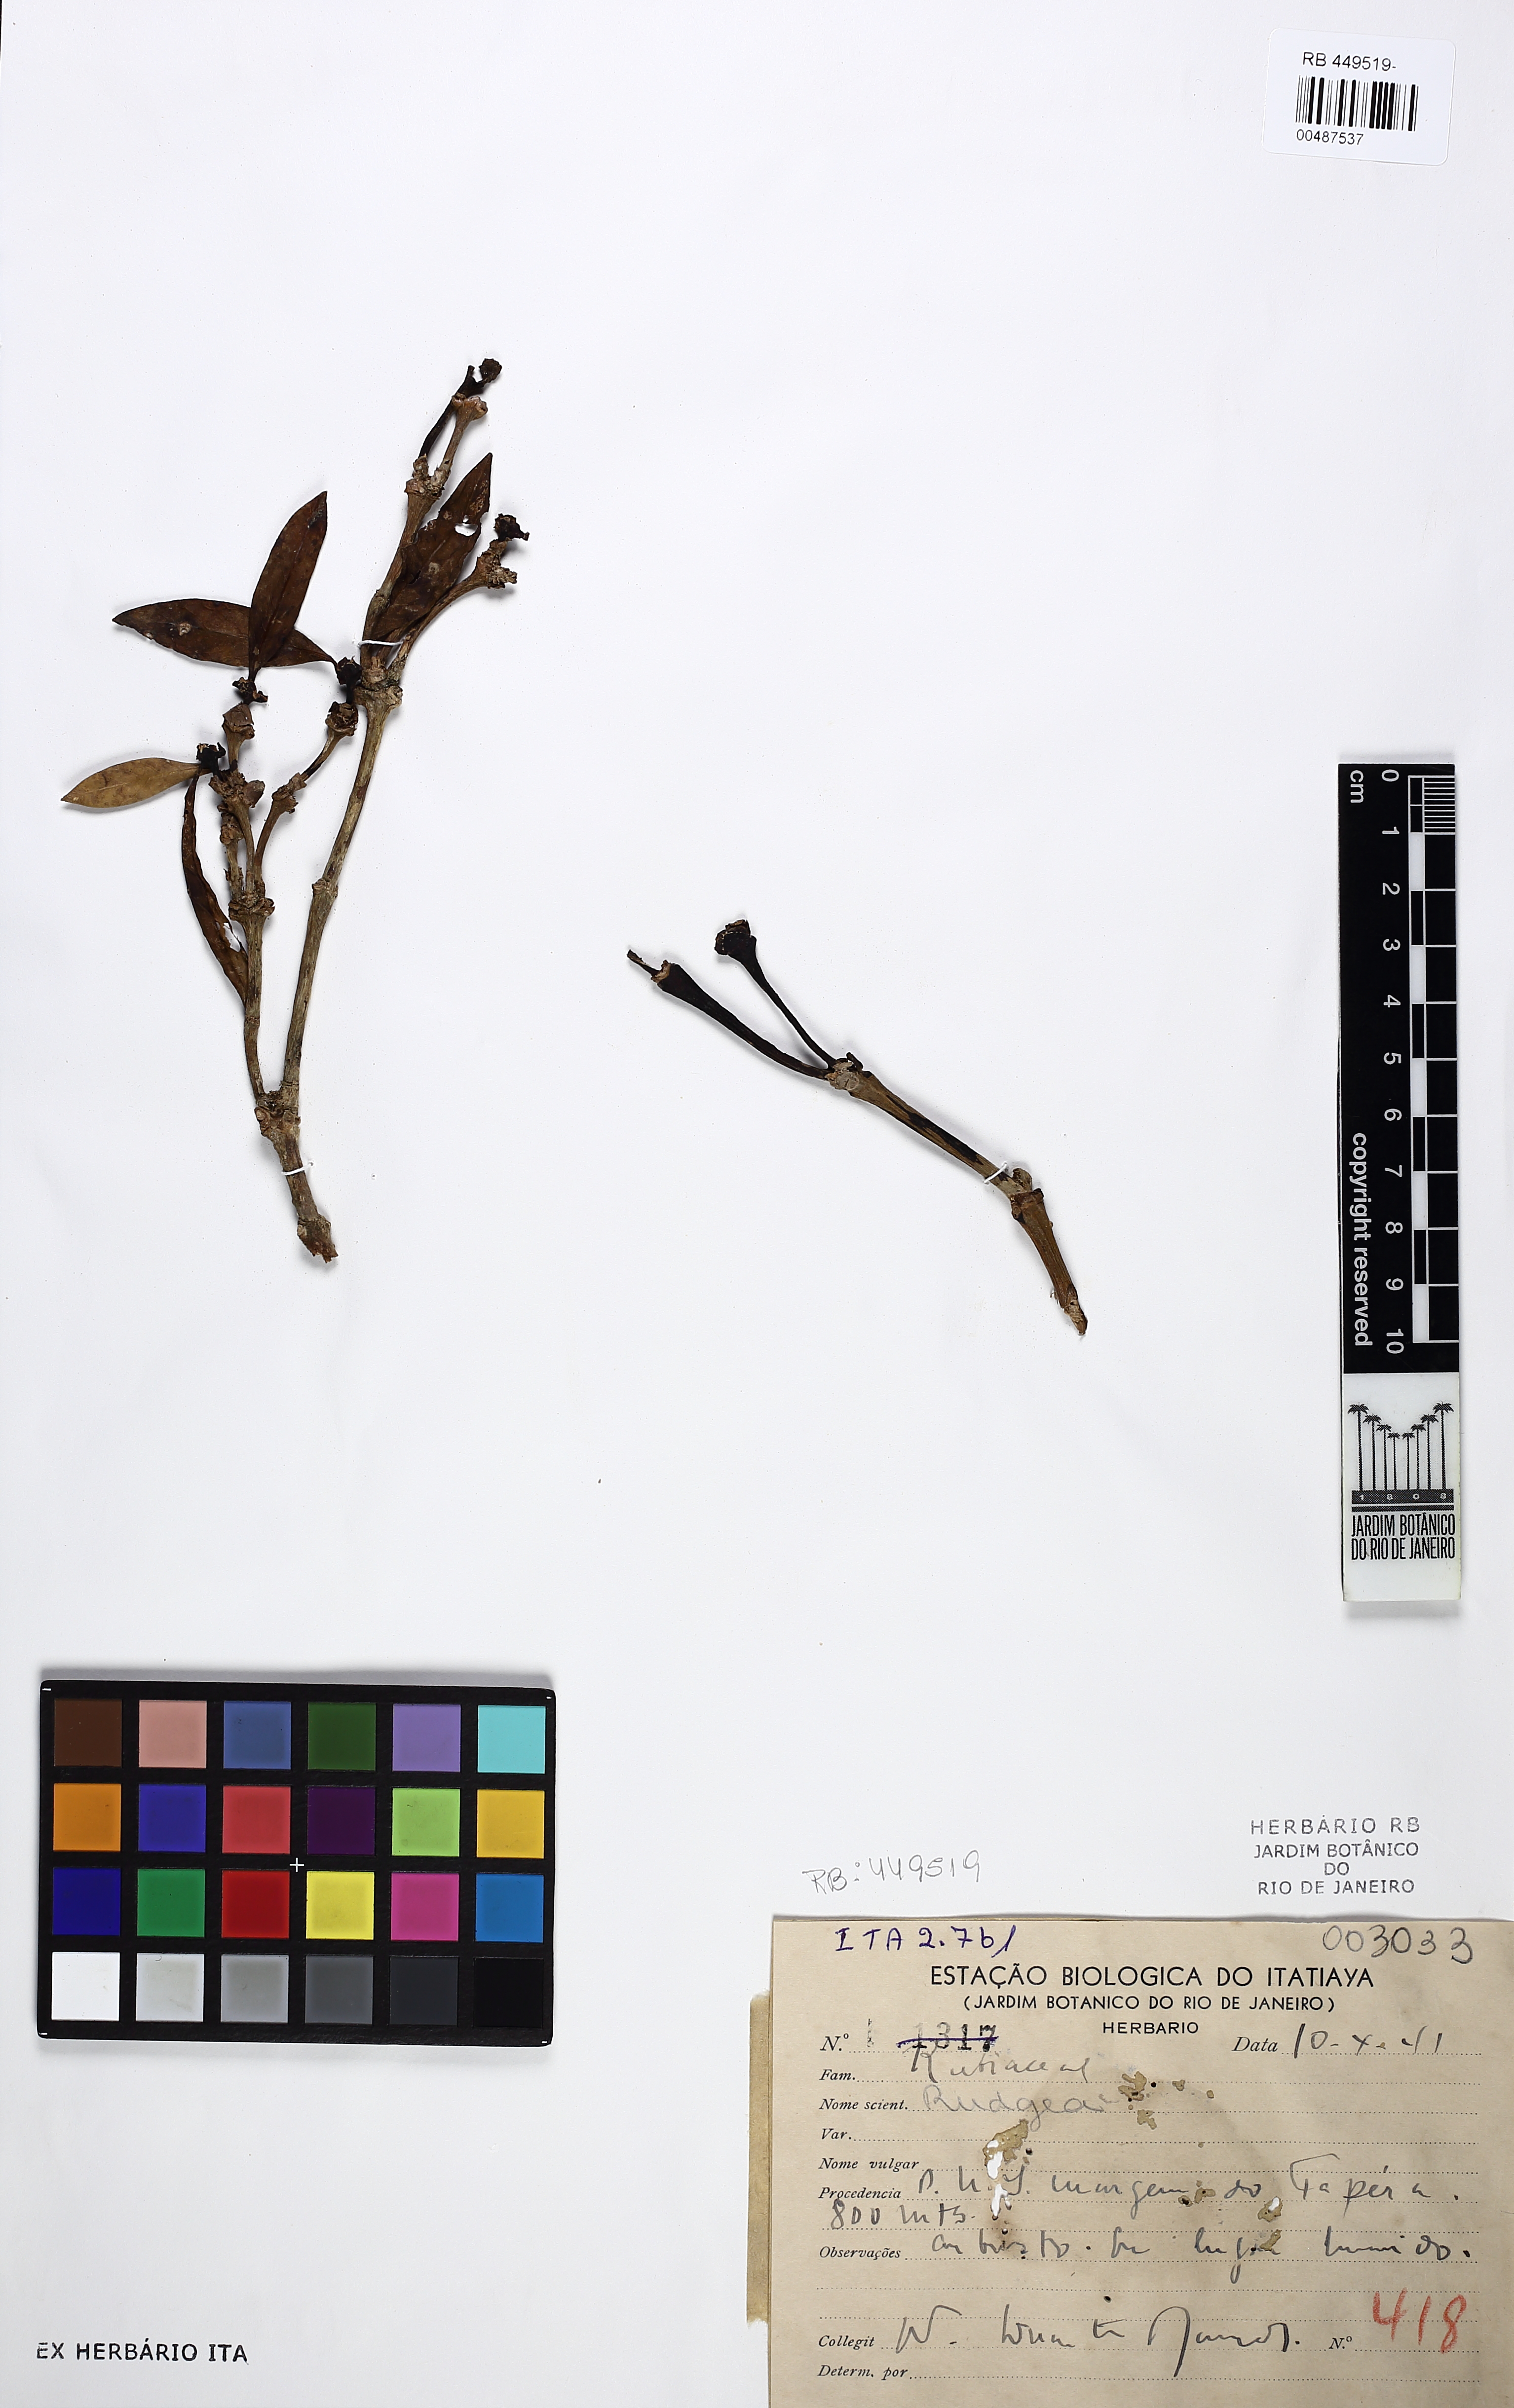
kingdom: Plantae
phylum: Tracheophyta
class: Magnoliopsida
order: Gentianales
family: Rubiaceae
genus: Rudgea
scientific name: Rudgea nodosa
